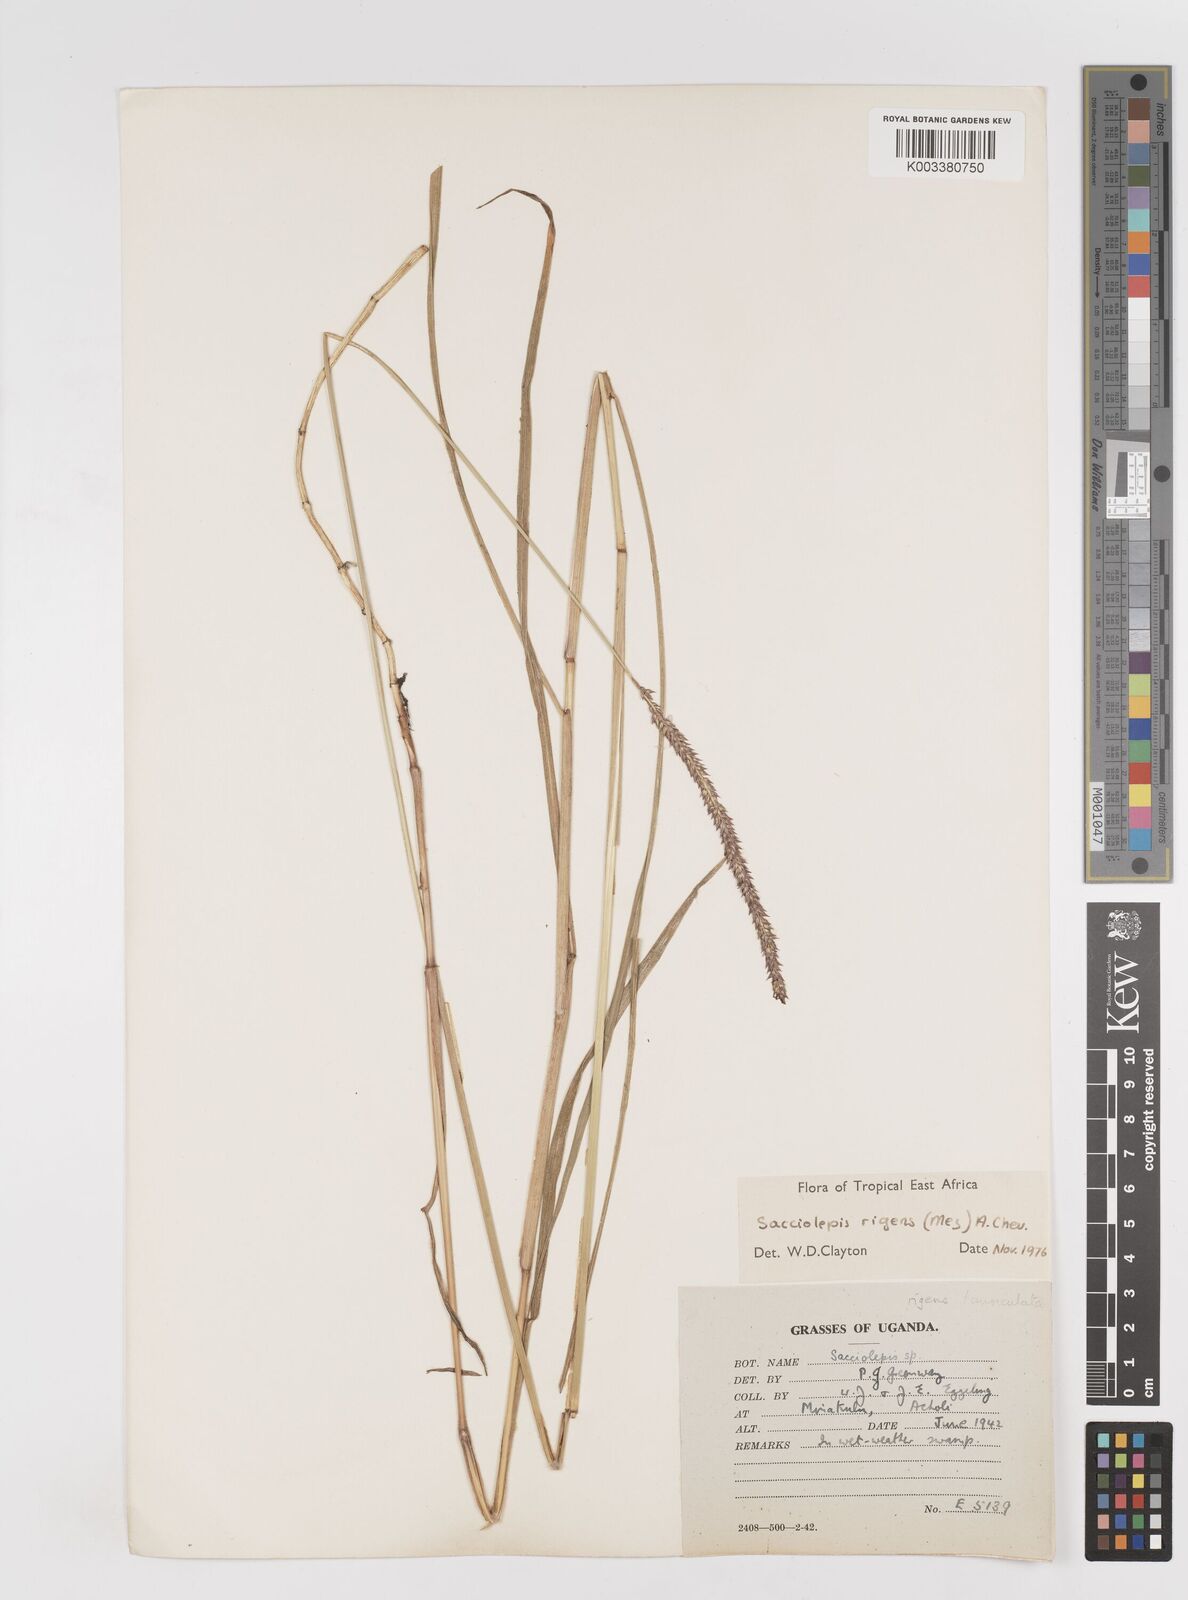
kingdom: Plantae
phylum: Tracheophyta
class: Liliopsida
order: Poales
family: Poaceae
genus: Sacciolepis
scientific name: Sacciolepis leptorrhachis
